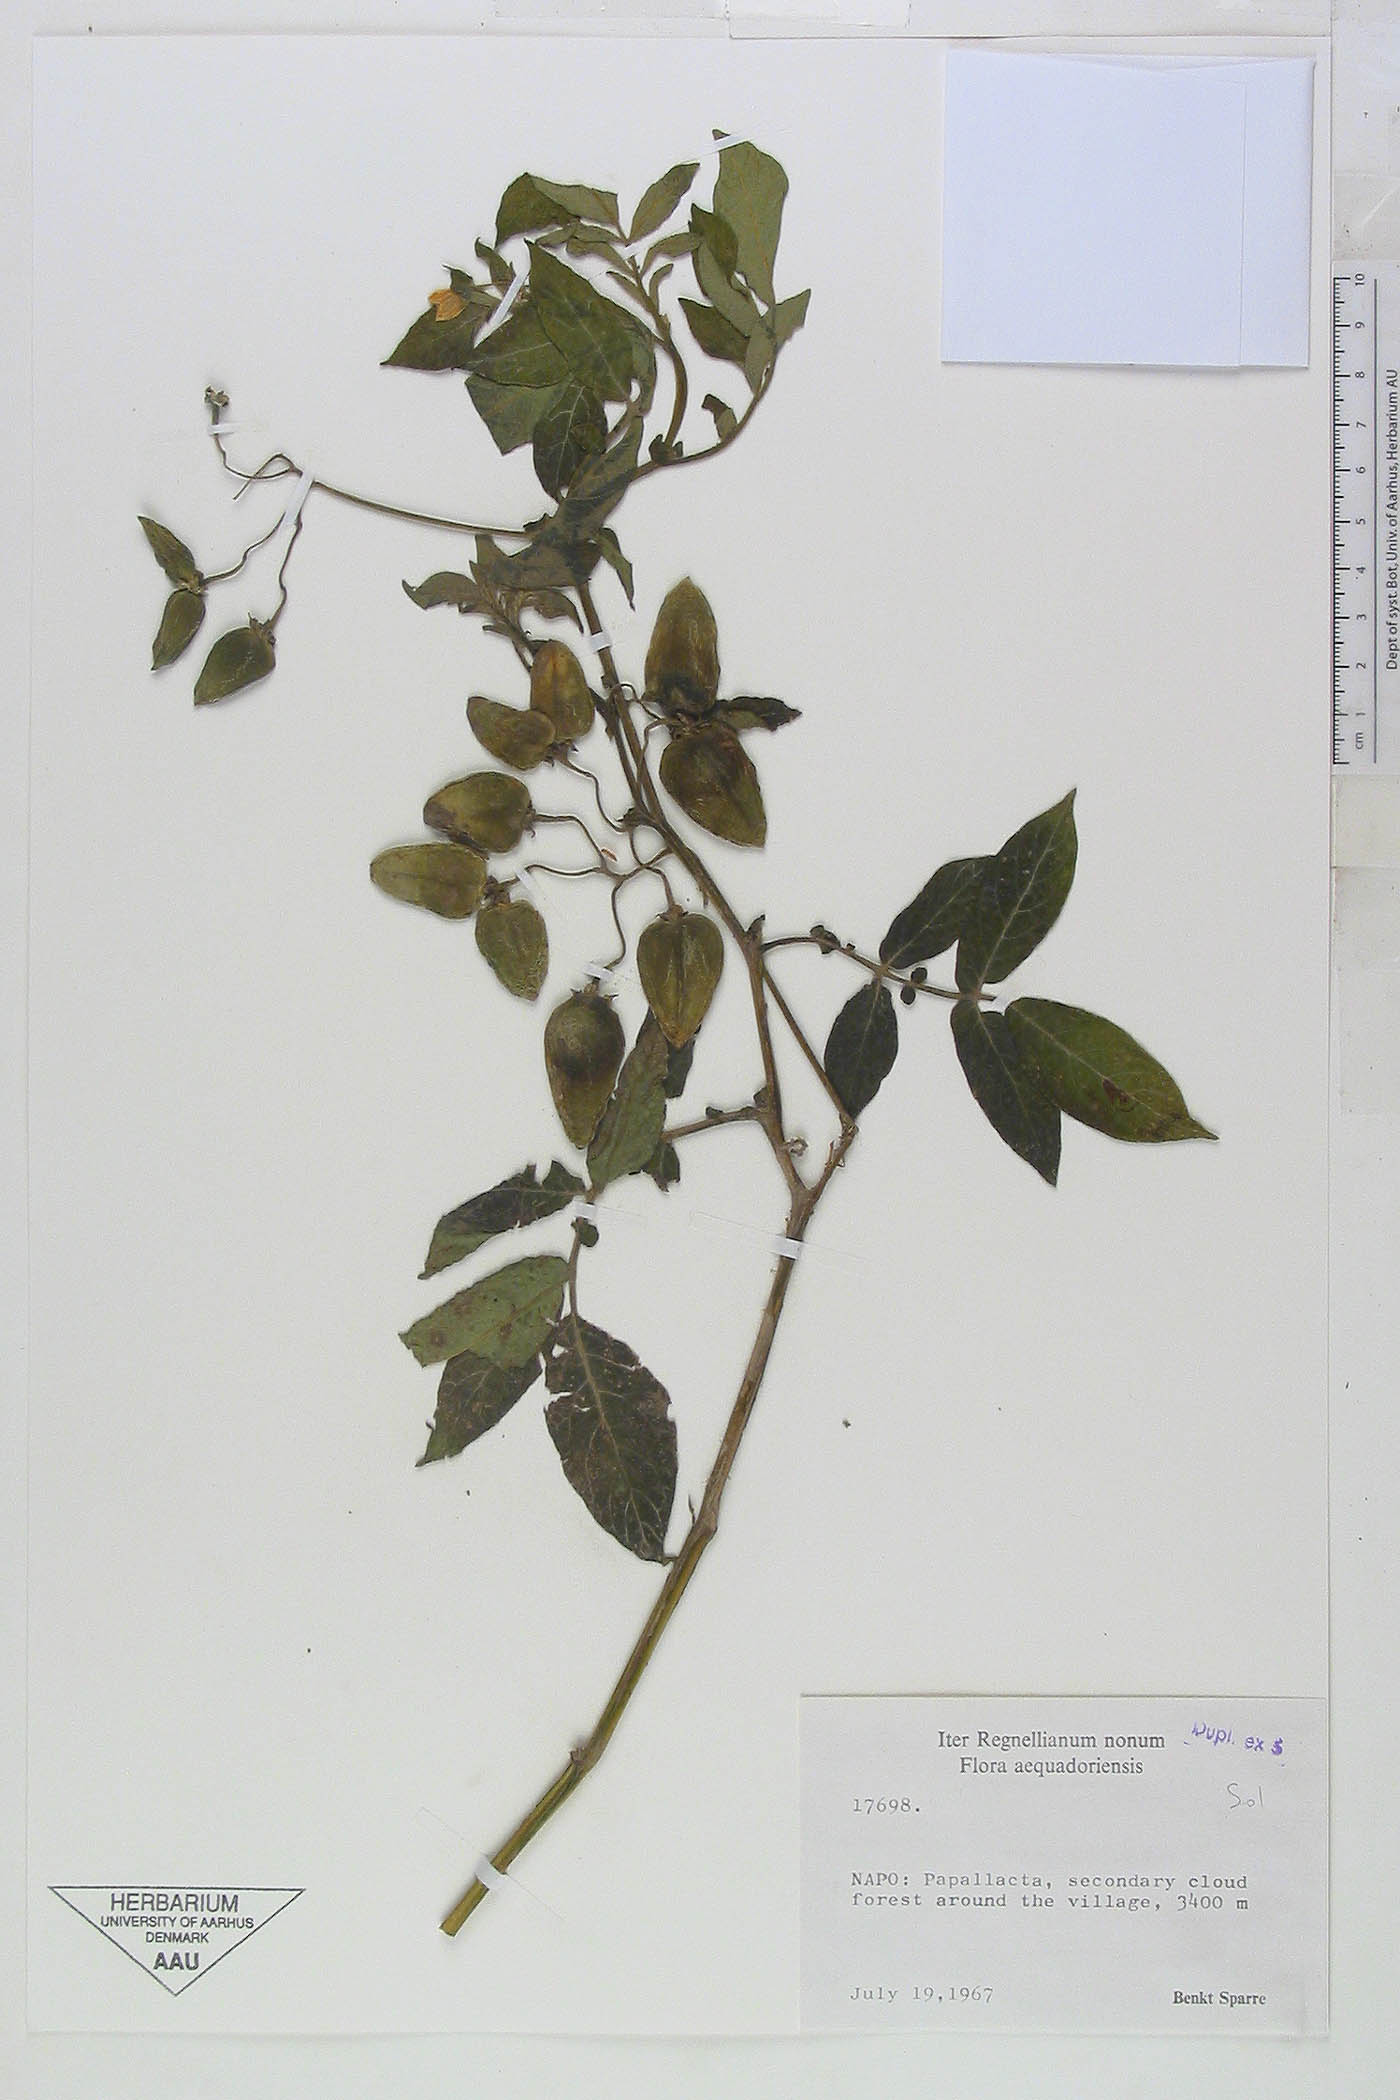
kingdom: Plantae
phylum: Tracheophyta
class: Magnoliopsida
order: Solanales
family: Solanaceae
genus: Solanum
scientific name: Solanum colombianum
